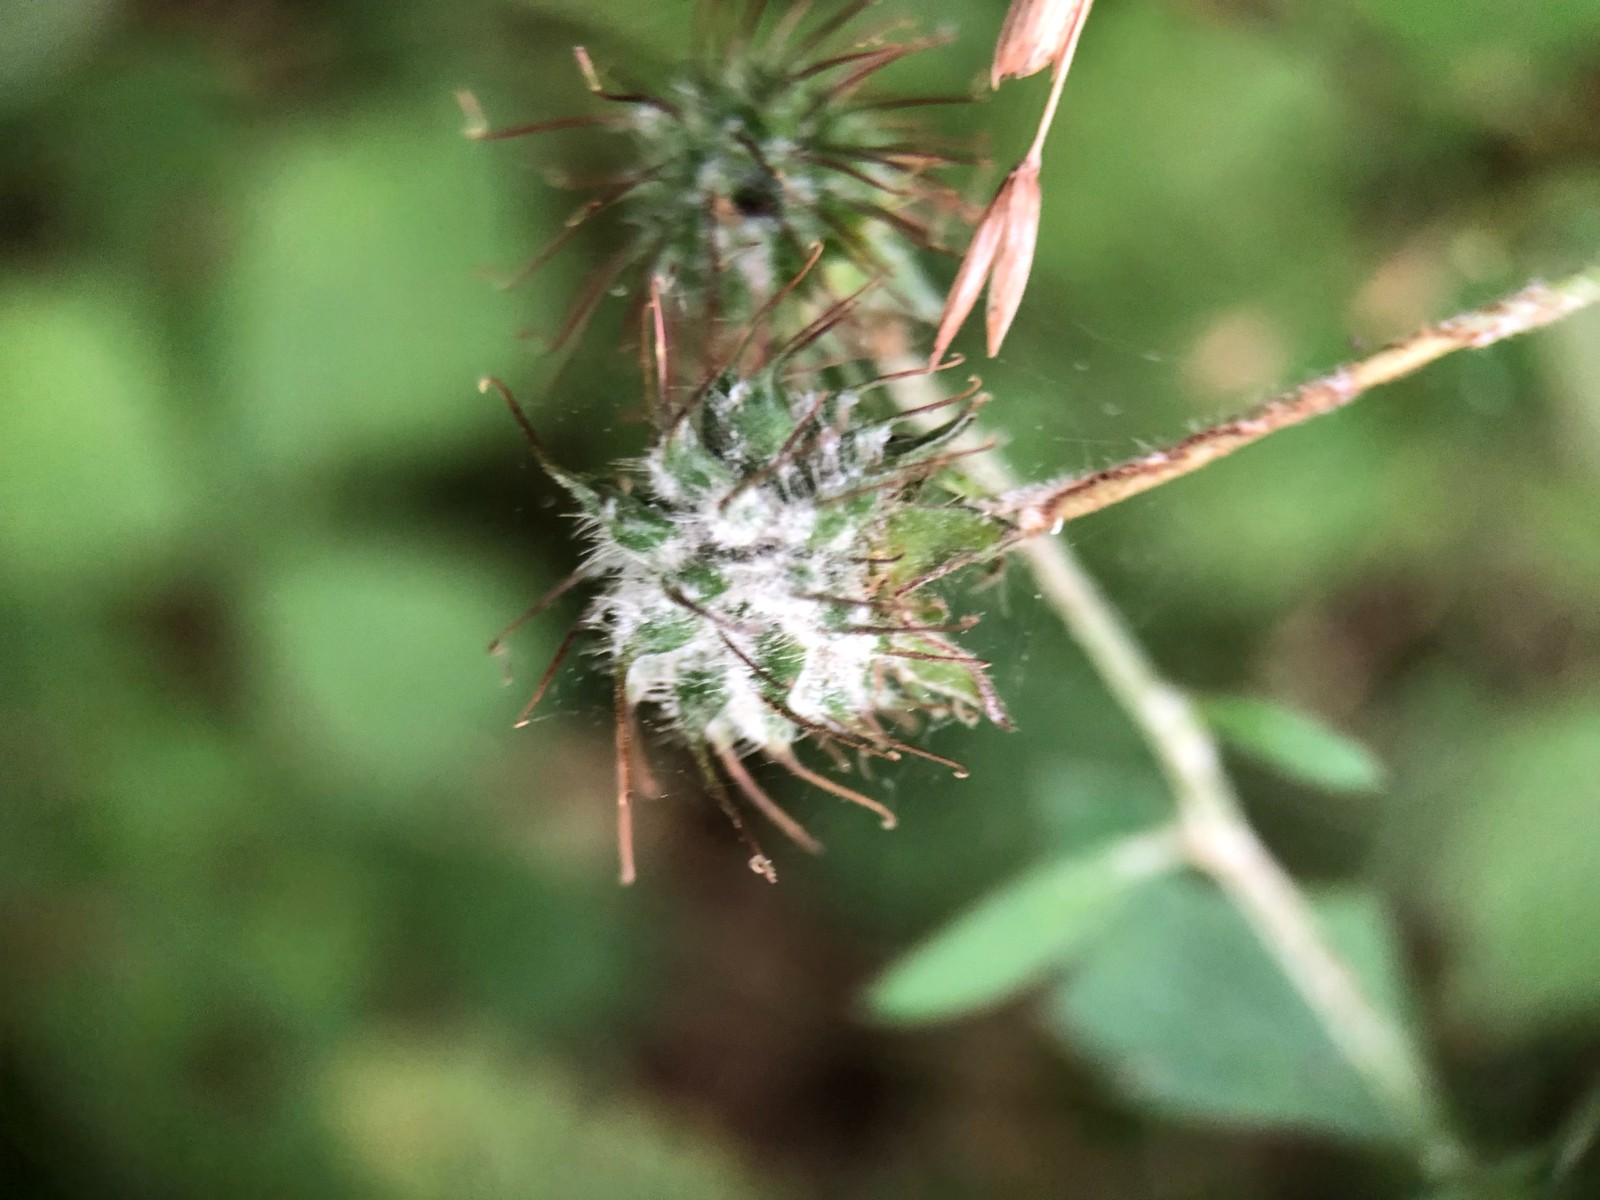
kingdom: Fungi
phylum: Ascomycota
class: Leotiomycetes
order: Helotiales
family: Erysiphaceae
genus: Podosphaera
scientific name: Podosphaera aphanis
